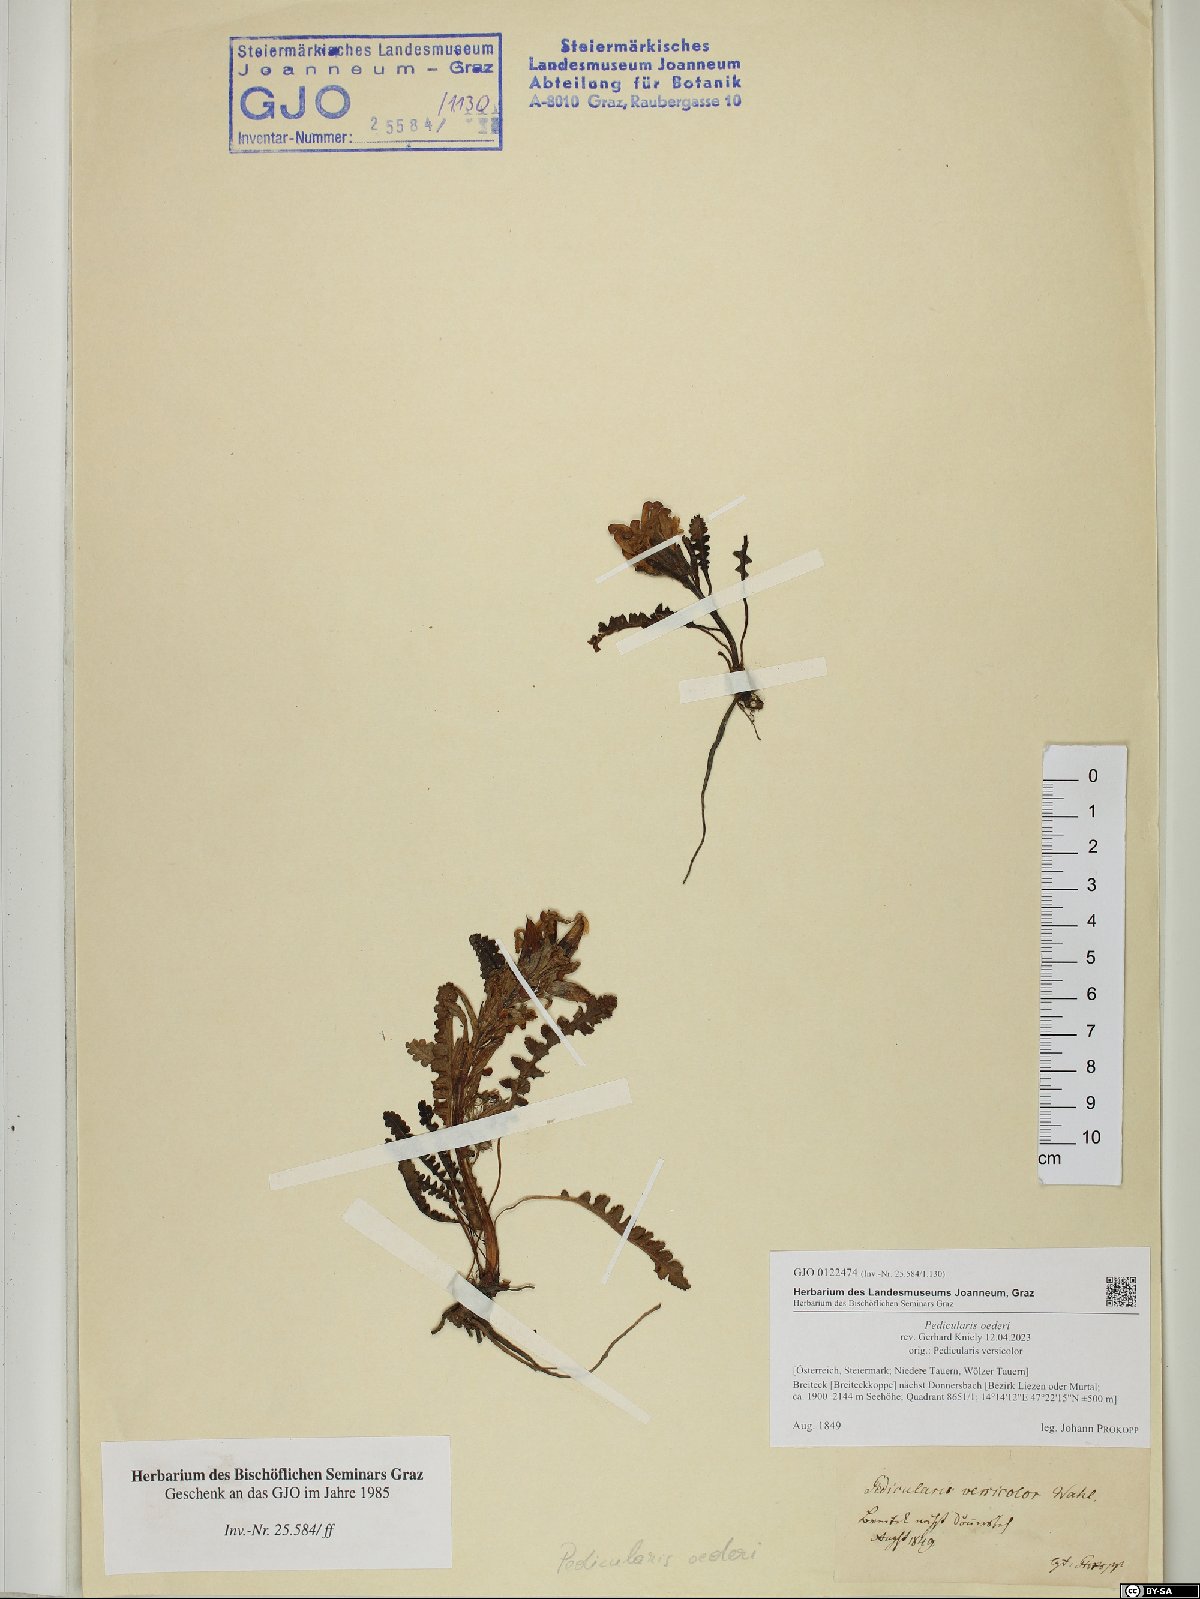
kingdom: Plantae
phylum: Tracheophyta
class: Magnoliopsida
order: Lamiales
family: Orobanchaceae
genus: Pedicularis
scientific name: Pedicularis oederi
